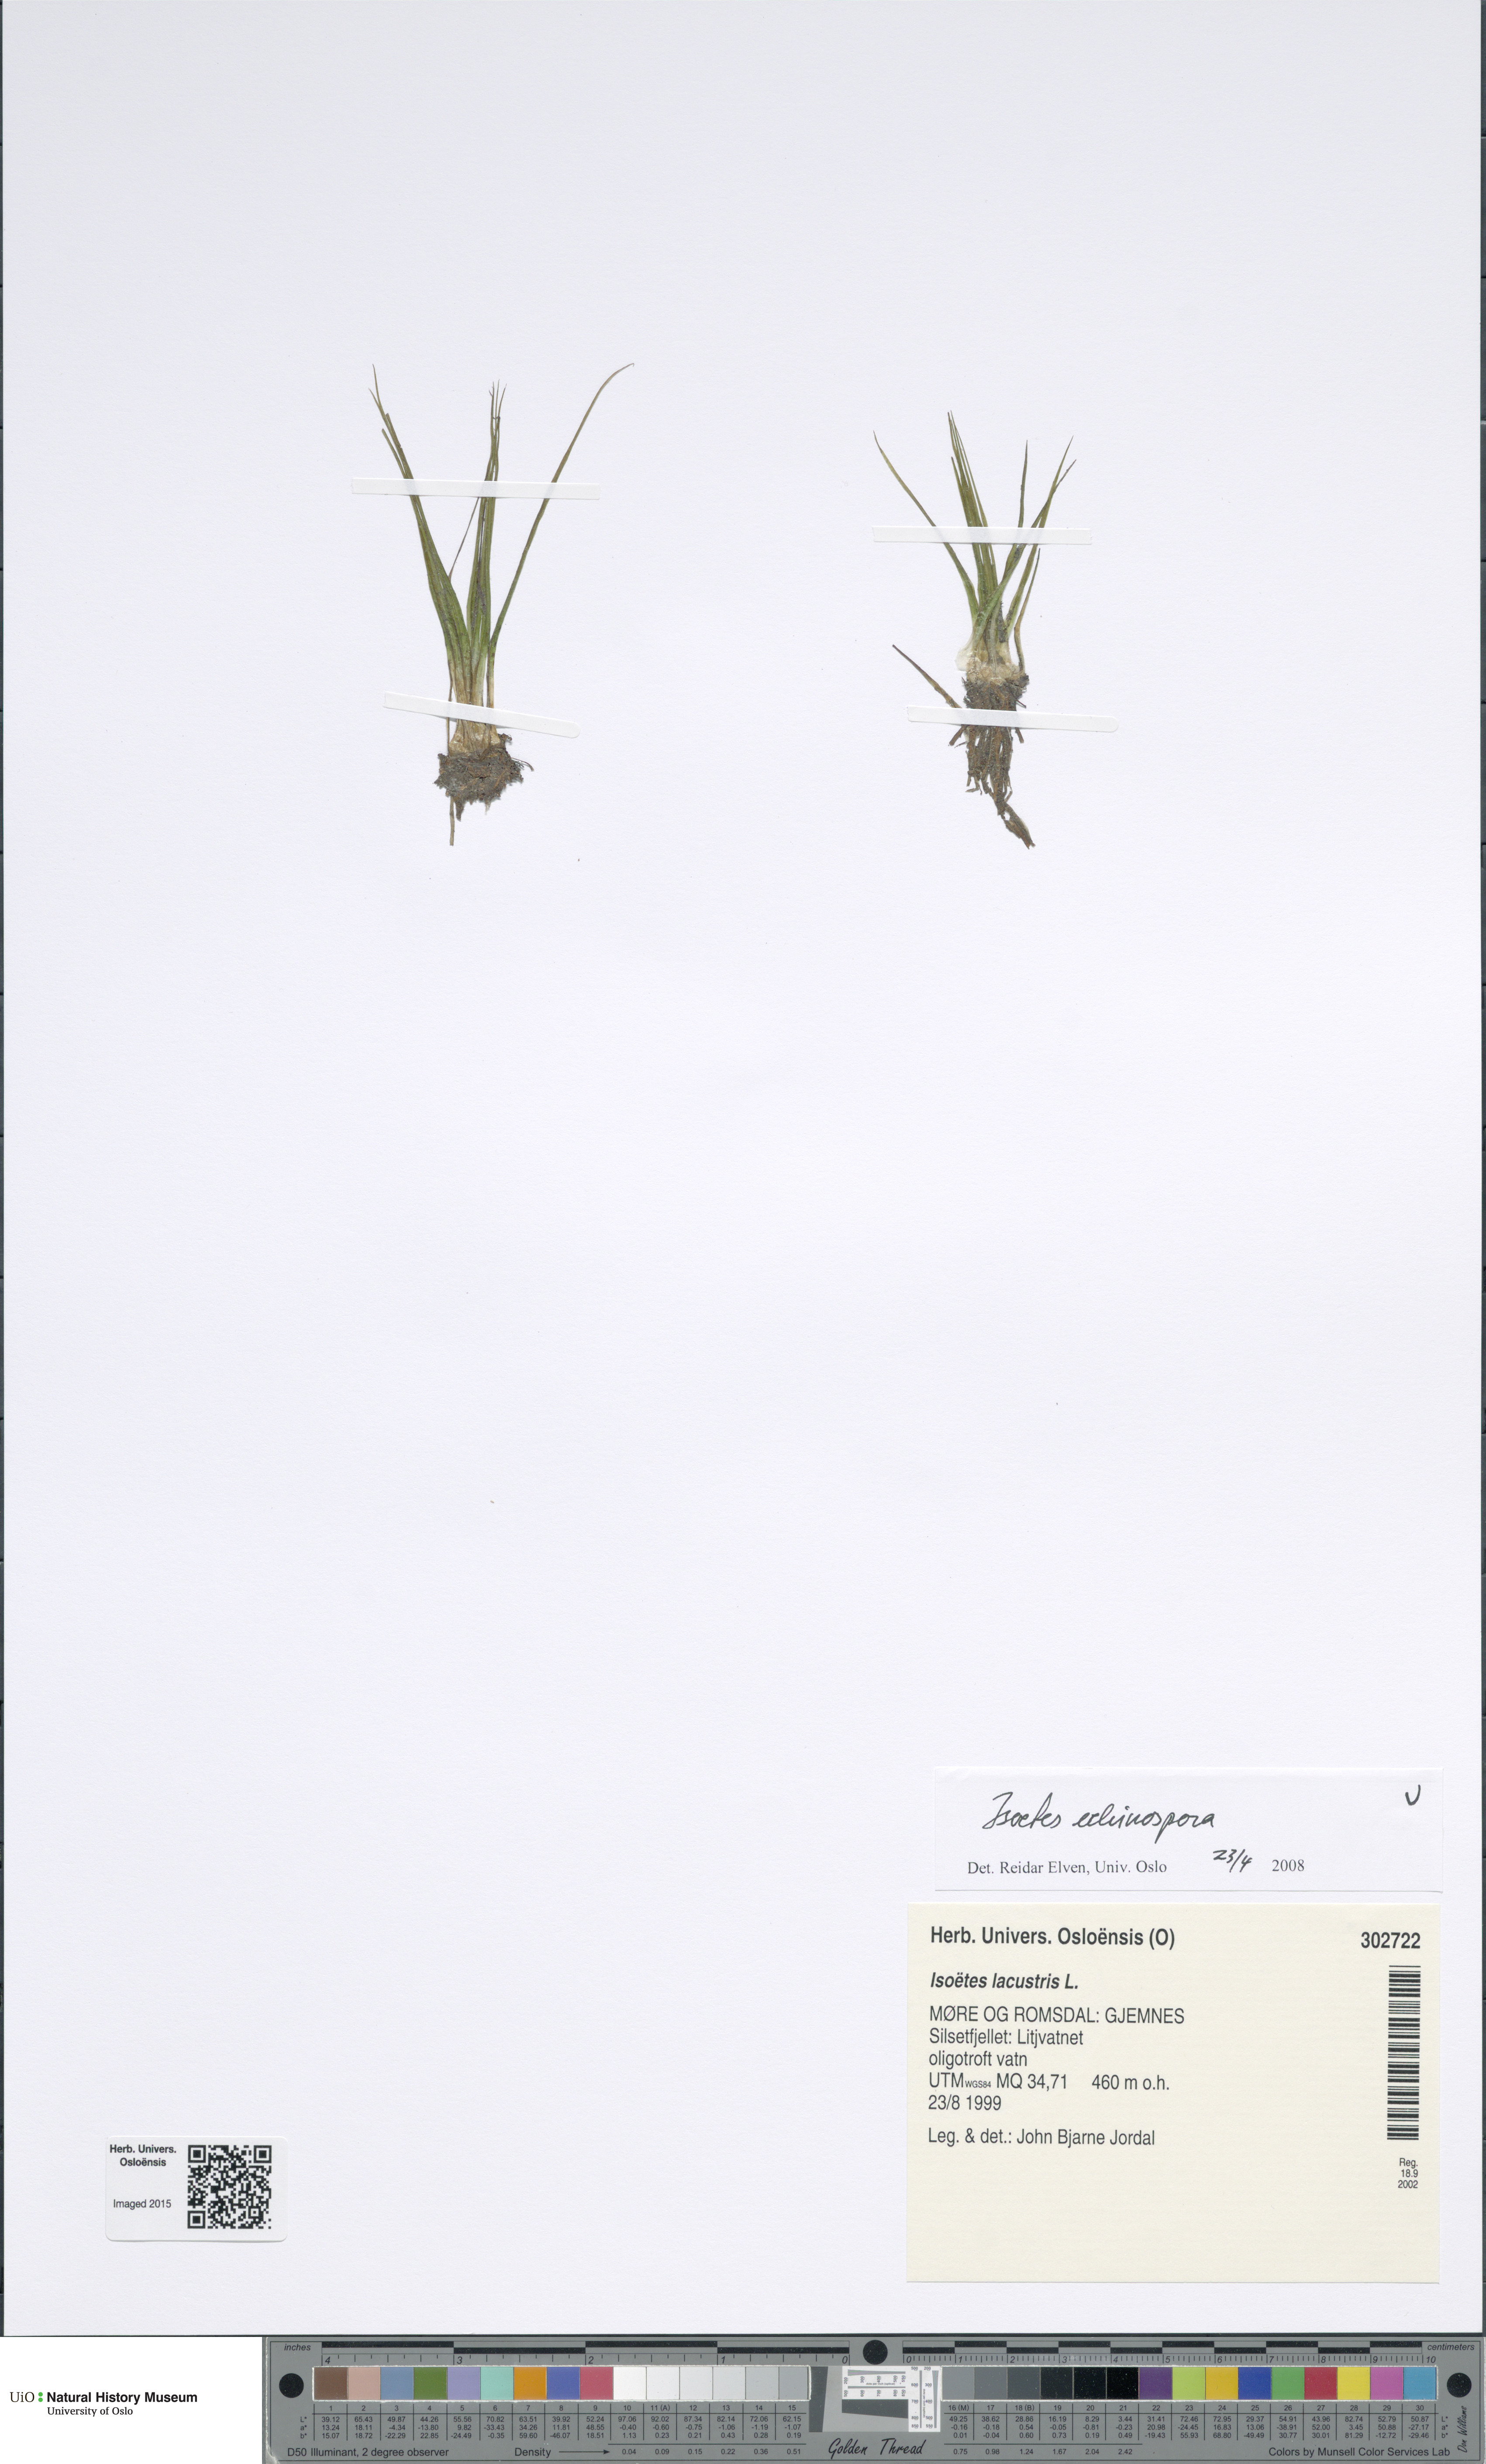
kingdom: Plantae
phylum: Tracheophyta
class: Lycopodiopsida
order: Isoetales
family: Isoetaceae
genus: Isoetes
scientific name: Isoetes echinospora
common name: Spring quillwort
